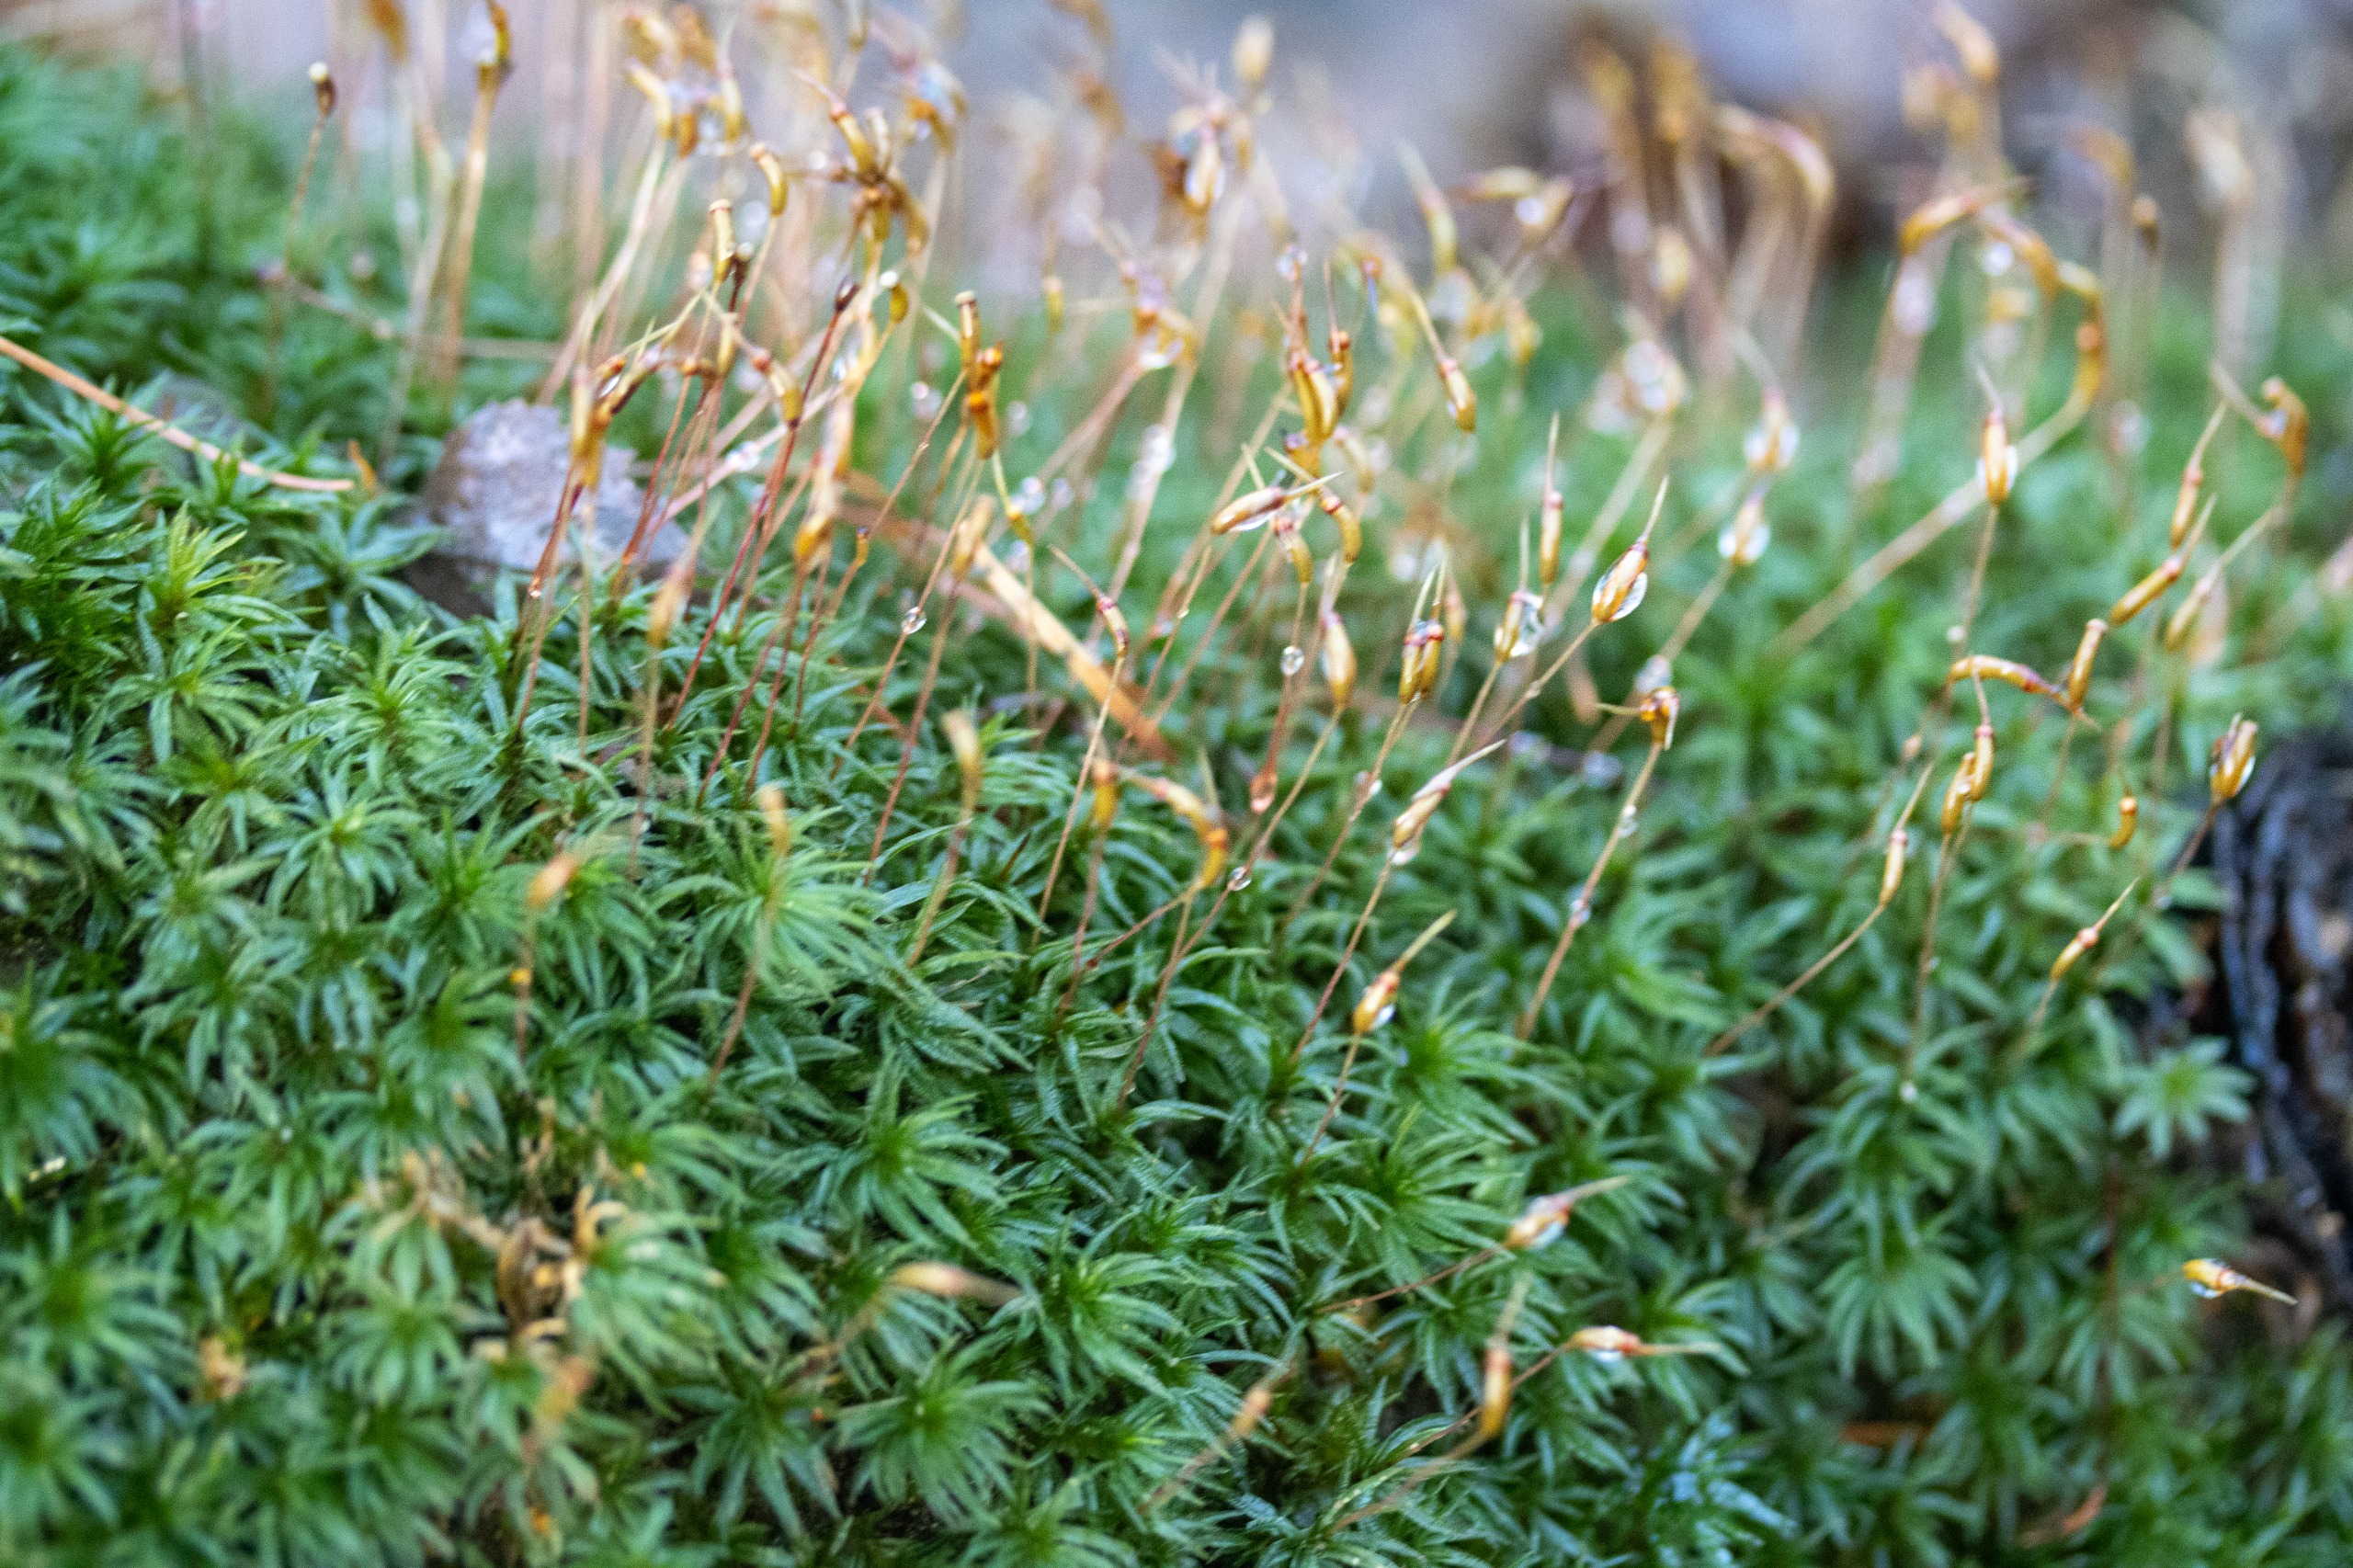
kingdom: Plantae
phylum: Bryophyta
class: Polytrichopsida
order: Polytrichales
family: Polytrichaceae
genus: Atrichum
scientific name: Atrichum undulatum
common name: Bølget katrinemos
